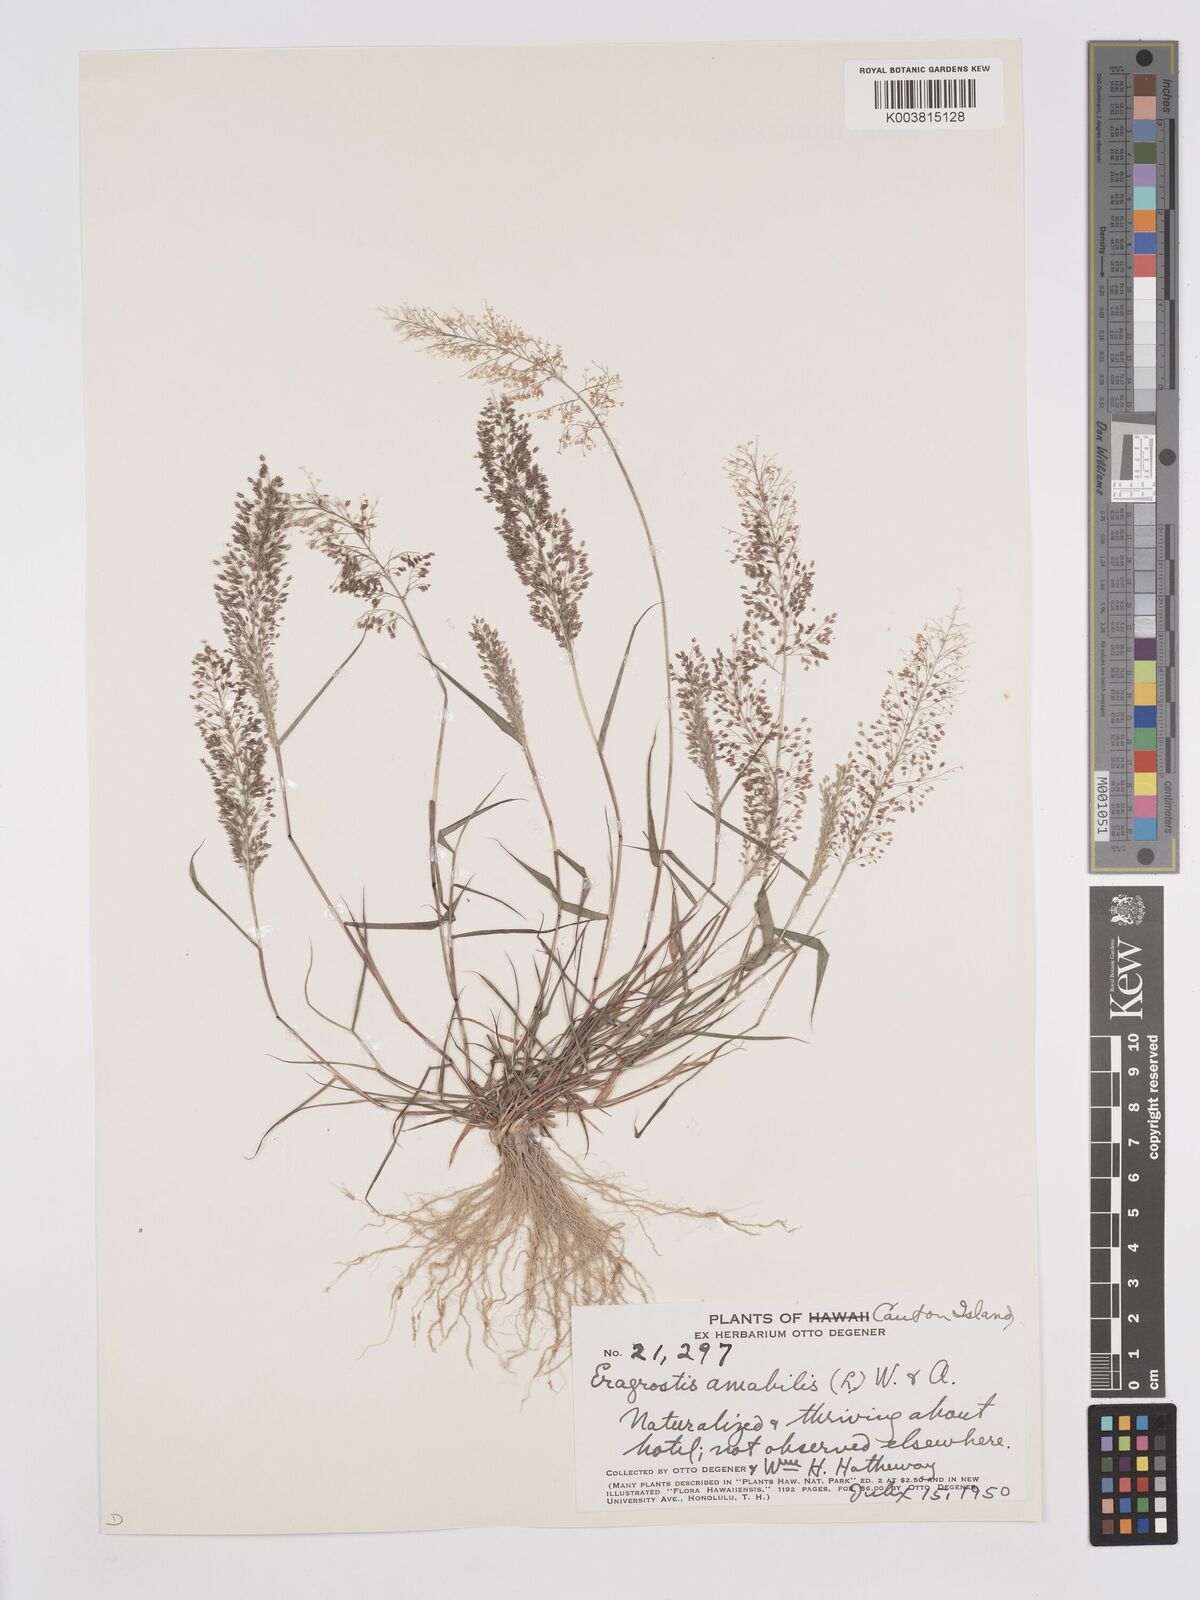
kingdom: Plantae
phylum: Tracheophyta
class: Liliopsida
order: Poales
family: Poaceae
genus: Eragrostis
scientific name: Eragrostis tenella
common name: Japanese lovegrass
